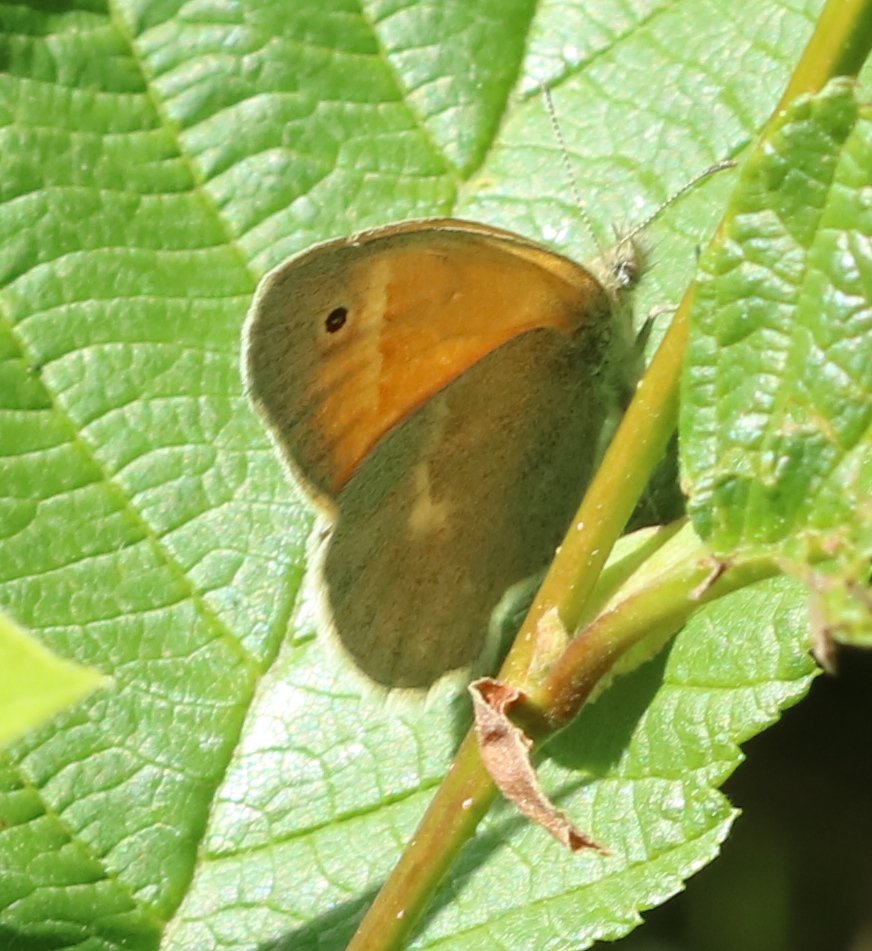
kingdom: Animalia
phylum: Arthropoda
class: Insecta
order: Lepidoptera
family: Nymphalidae
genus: Coenonympha
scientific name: Coenonympha tullia
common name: Large Heath
